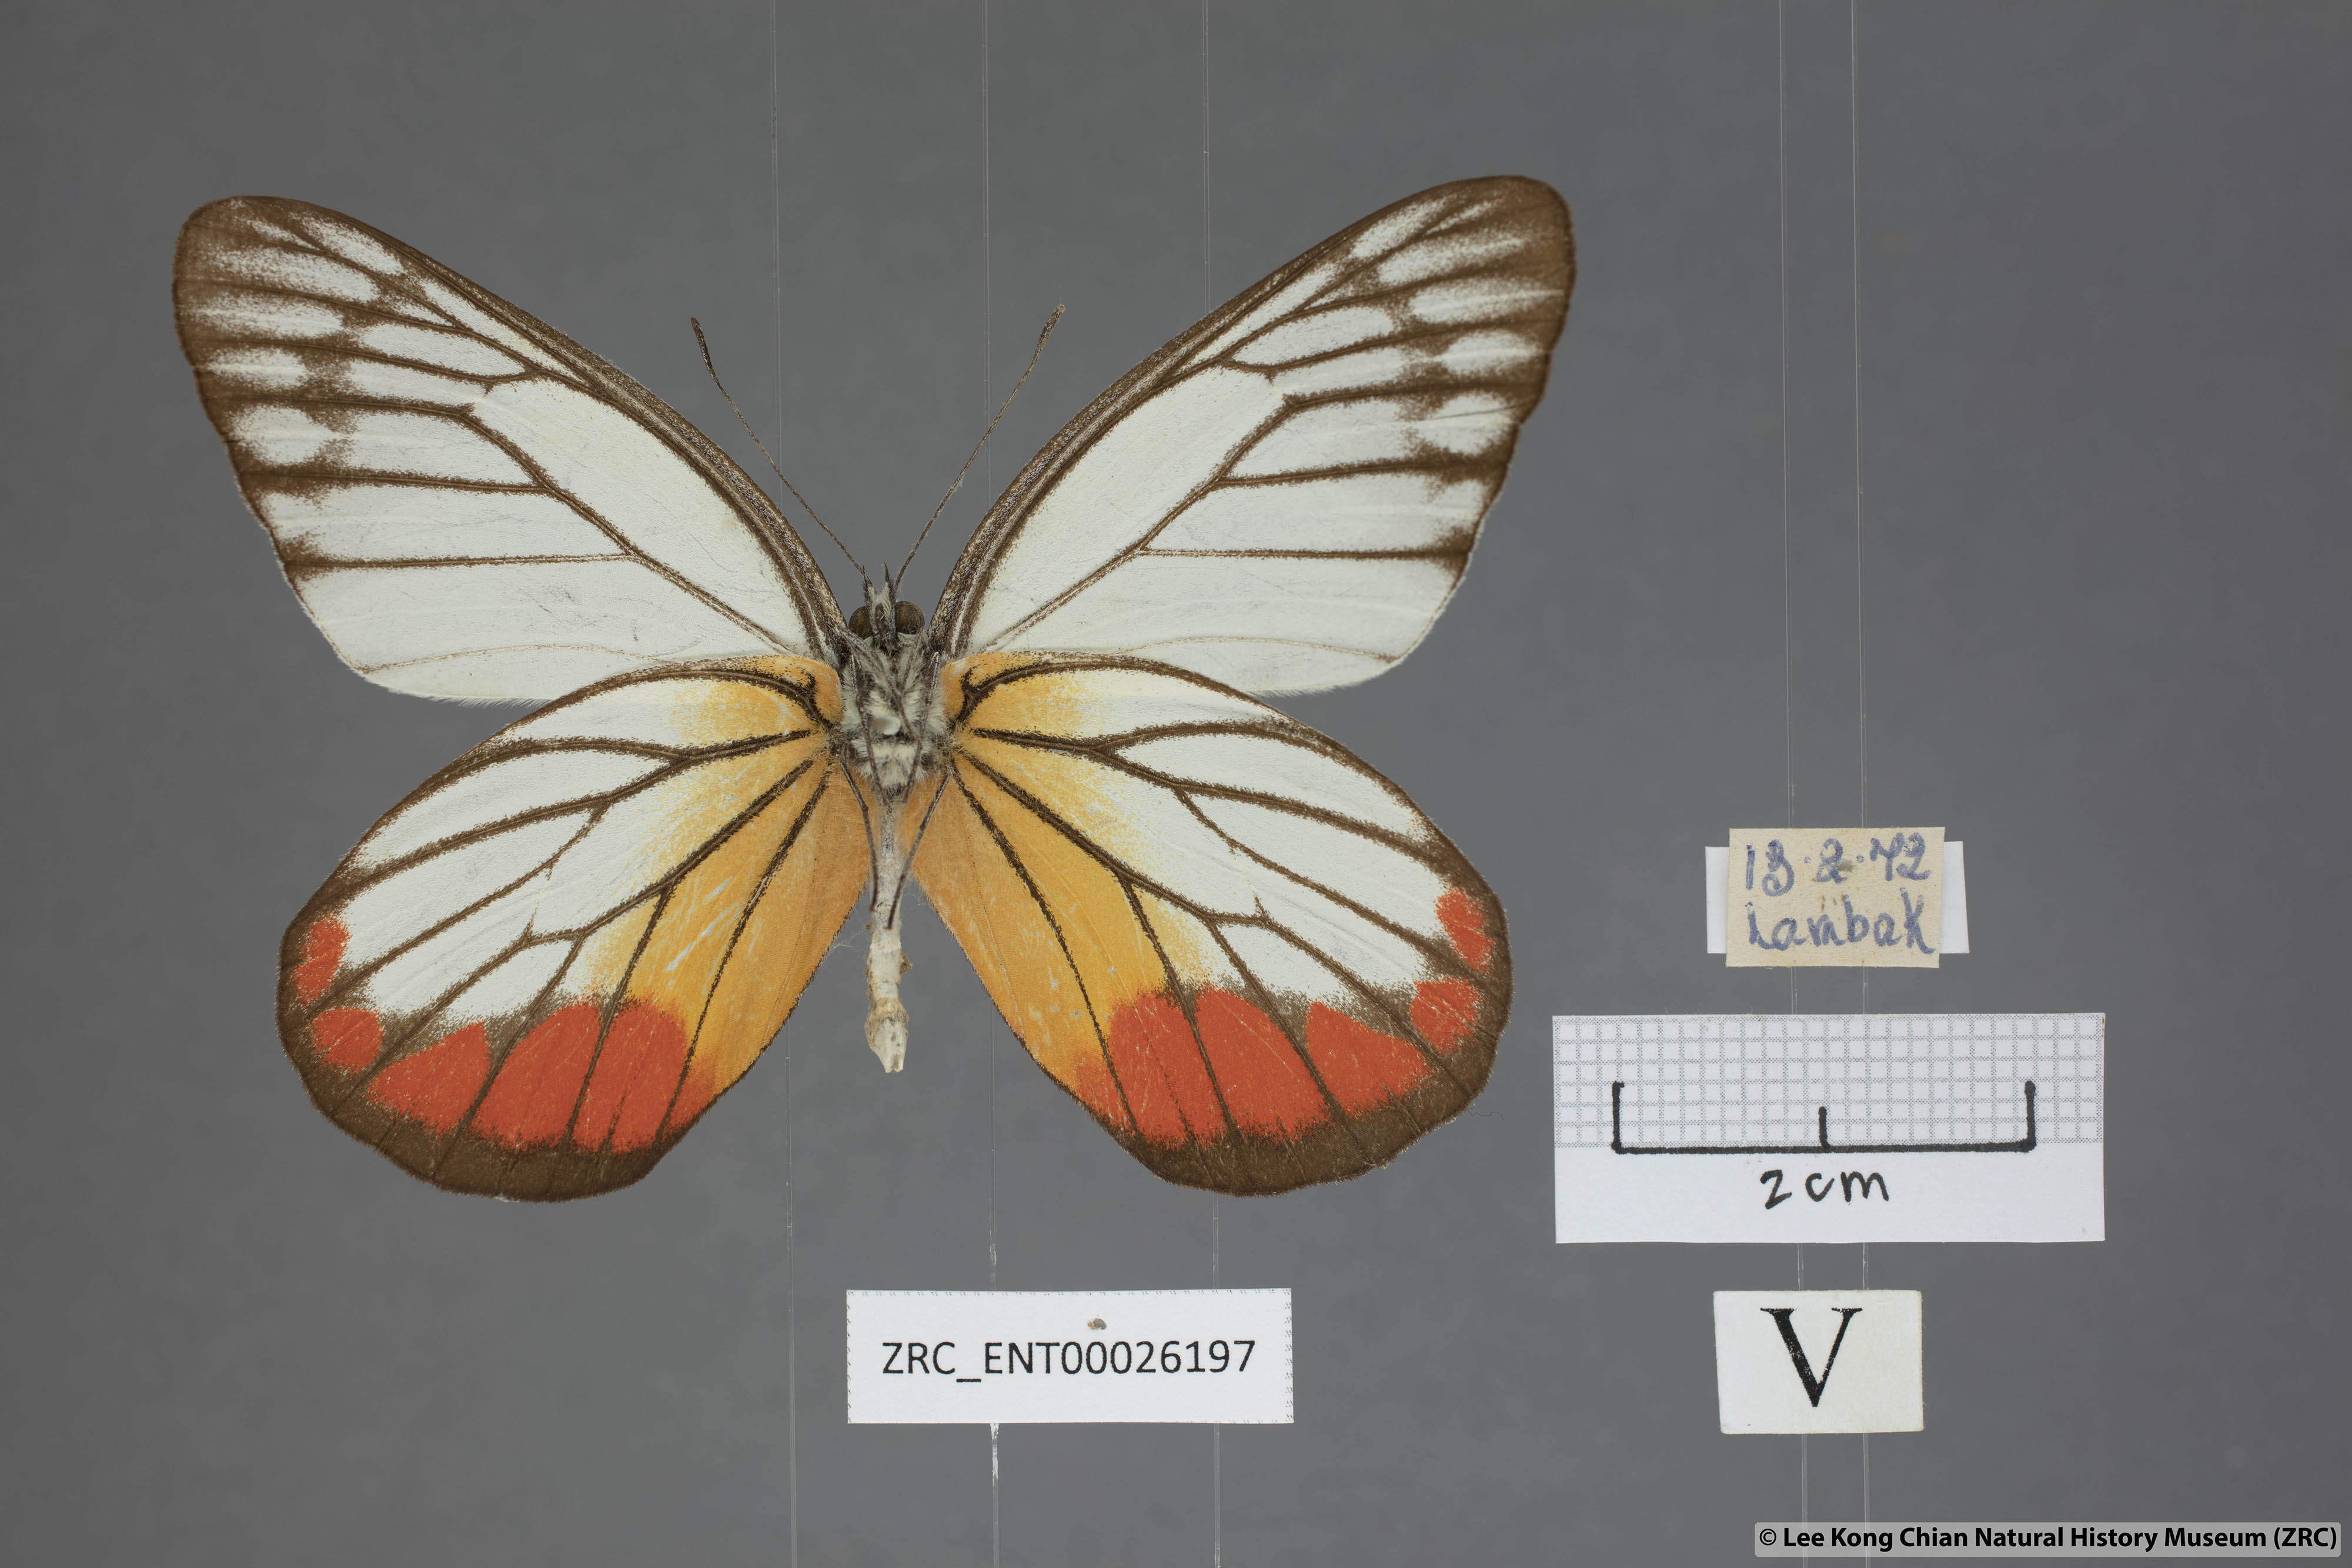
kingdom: Animalia
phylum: Arthropoda
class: Insecta
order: Lepidoptera
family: Pieridae
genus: Delias
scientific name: Delias hyparete
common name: Painted jezebel
